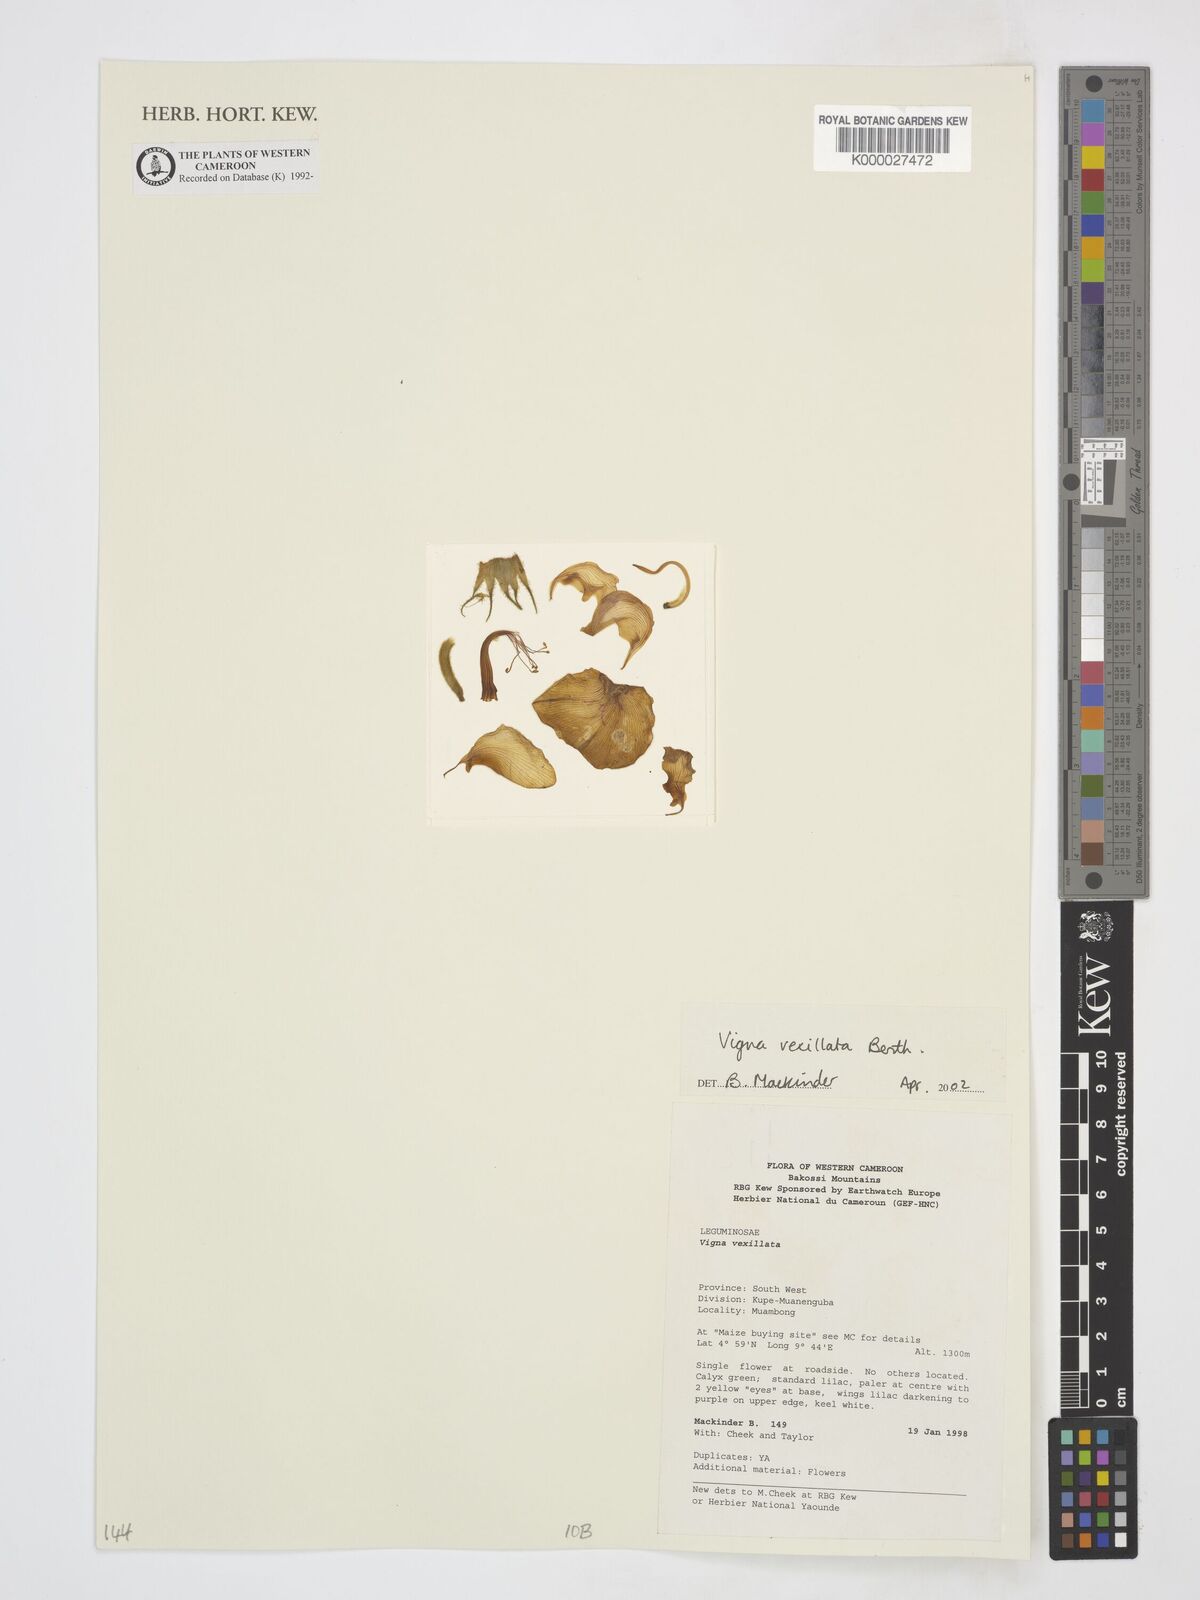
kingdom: Plantae
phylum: Tracheophyta
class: Magnoliopsida
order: Fabales
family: Fabaceae
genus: Vigna
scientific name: Vigna
